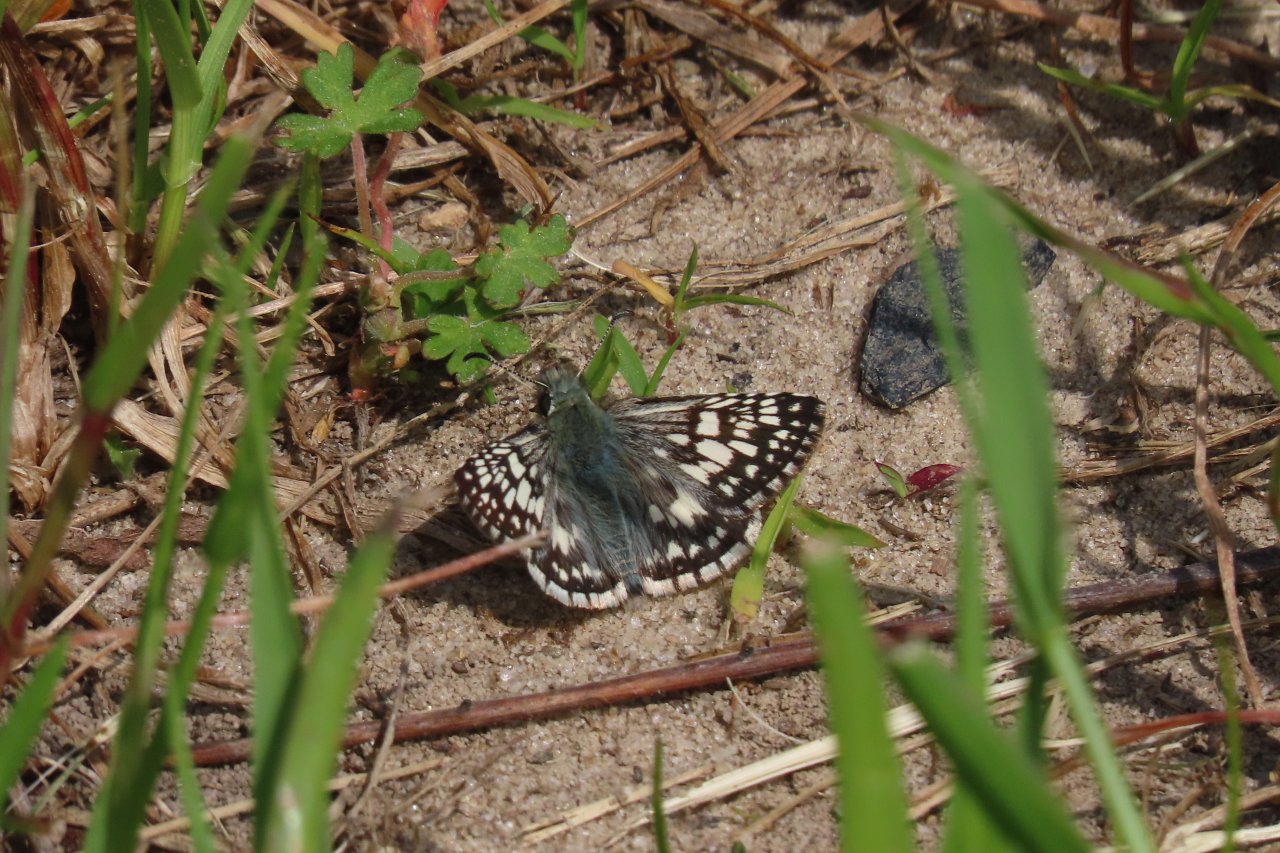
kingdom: Animalia
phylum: Arthropoda
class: Insecta
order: Lepidoptera
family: Hesperiidae
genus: Pyrgus
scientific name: Pyrgus communis
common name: Common Checkered-Skipper
